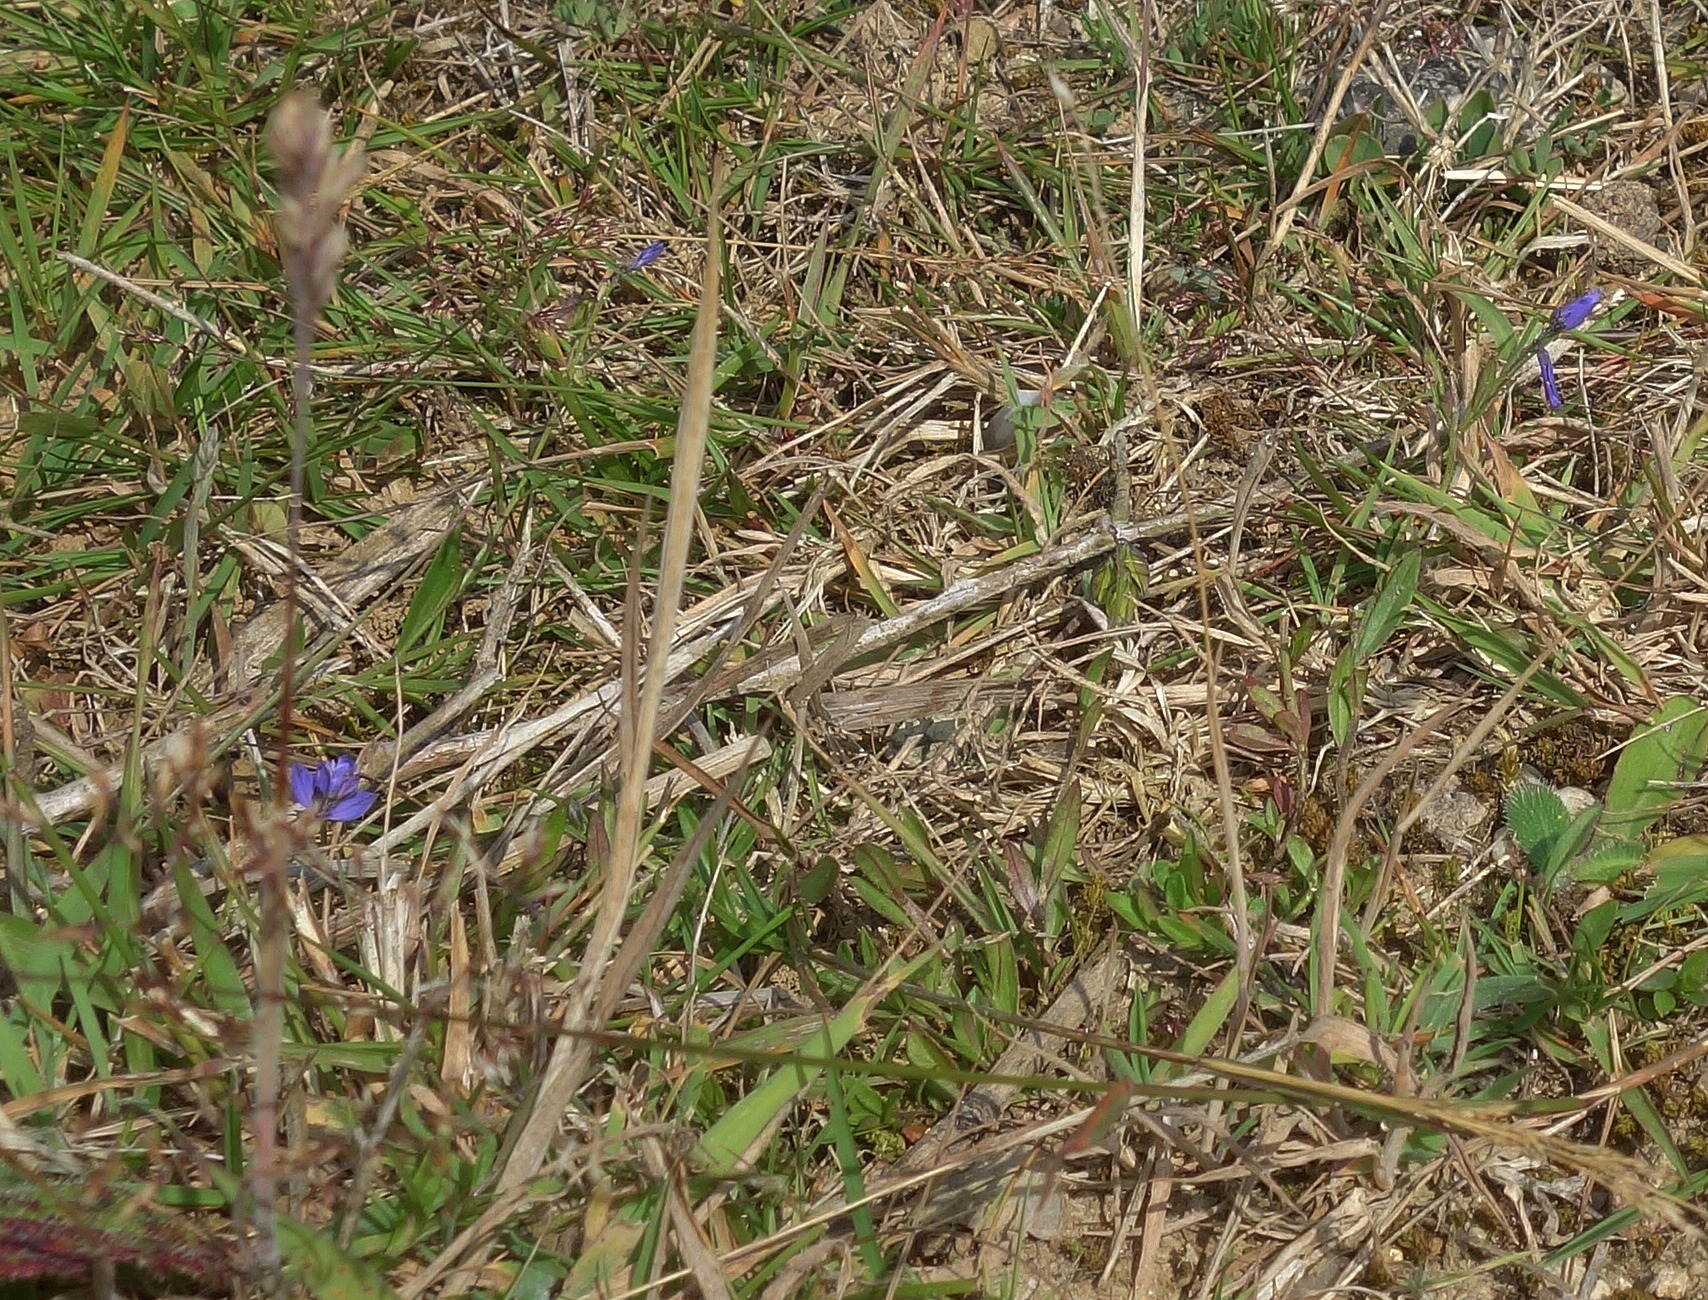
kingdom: Plantae
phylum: Tracheophyta
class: Magnoliopsida
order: Fabales
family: Polygalaceae
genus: Polygala
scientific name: Polygala vulgaris
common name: Almindelig mælkeurt
